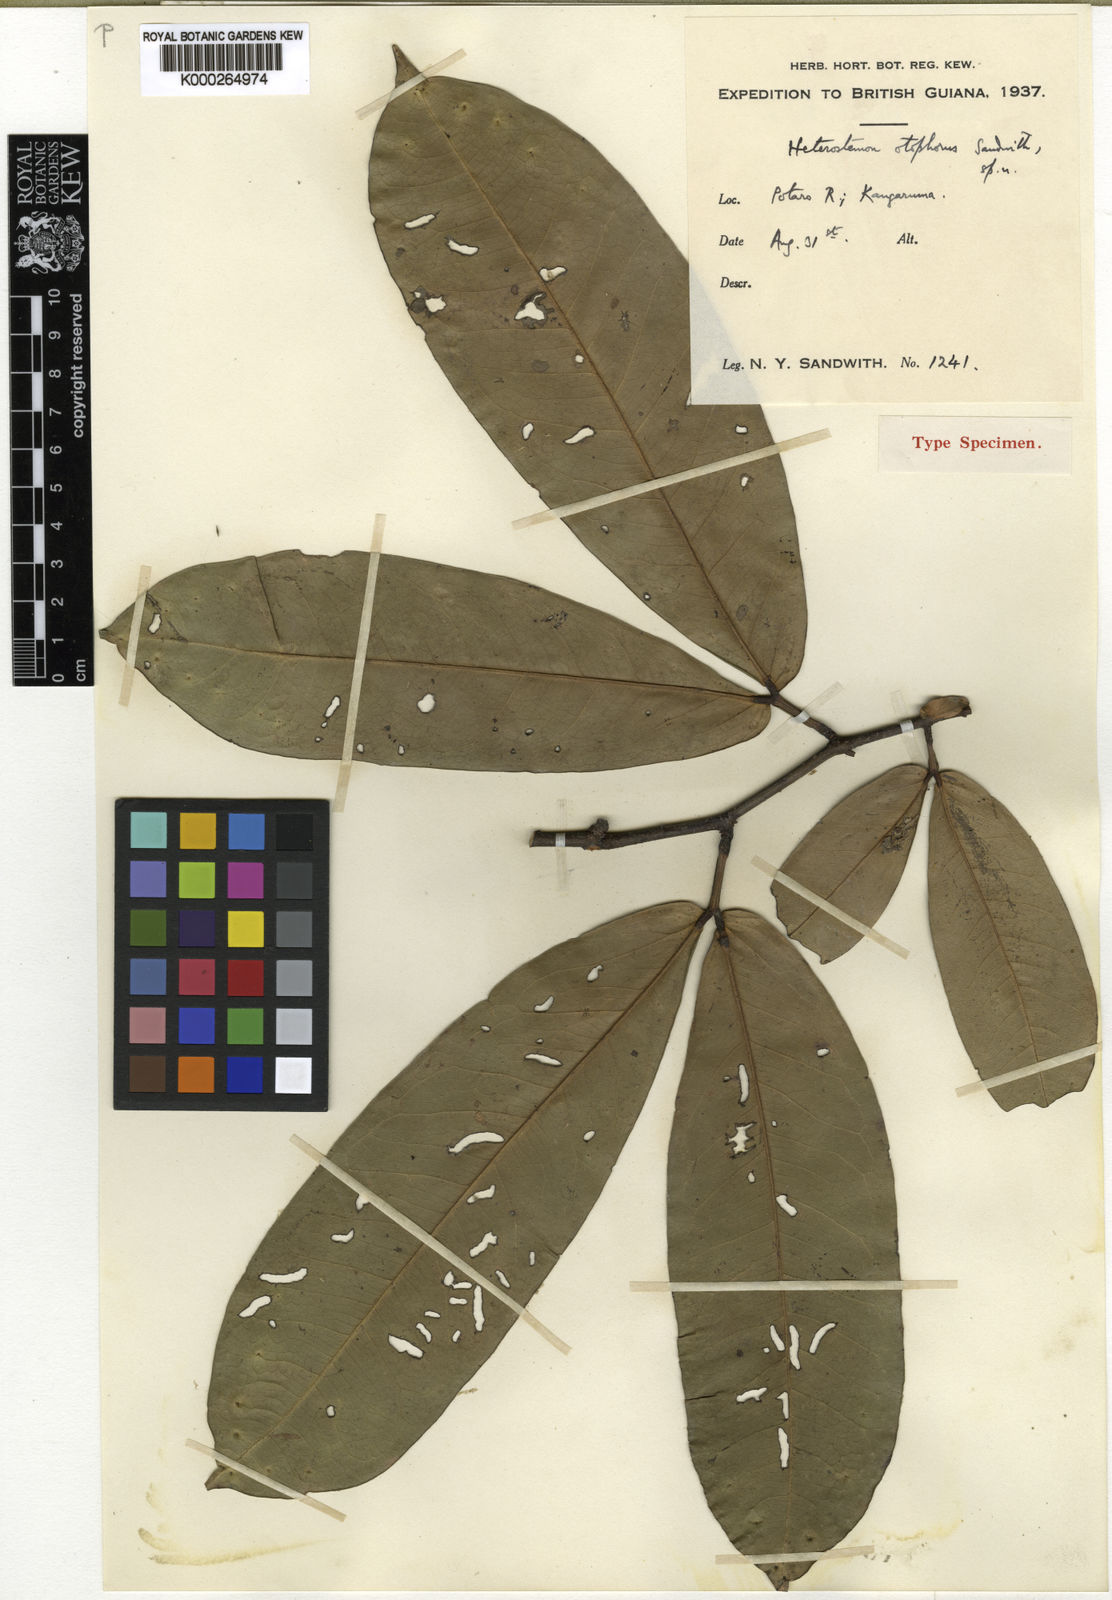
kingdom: Plantae
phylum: Tracheophyta
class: Magnoliopsida
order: Fabales
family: Fabaceae
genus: Heterostemon
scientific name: Heterostemon otophorus
